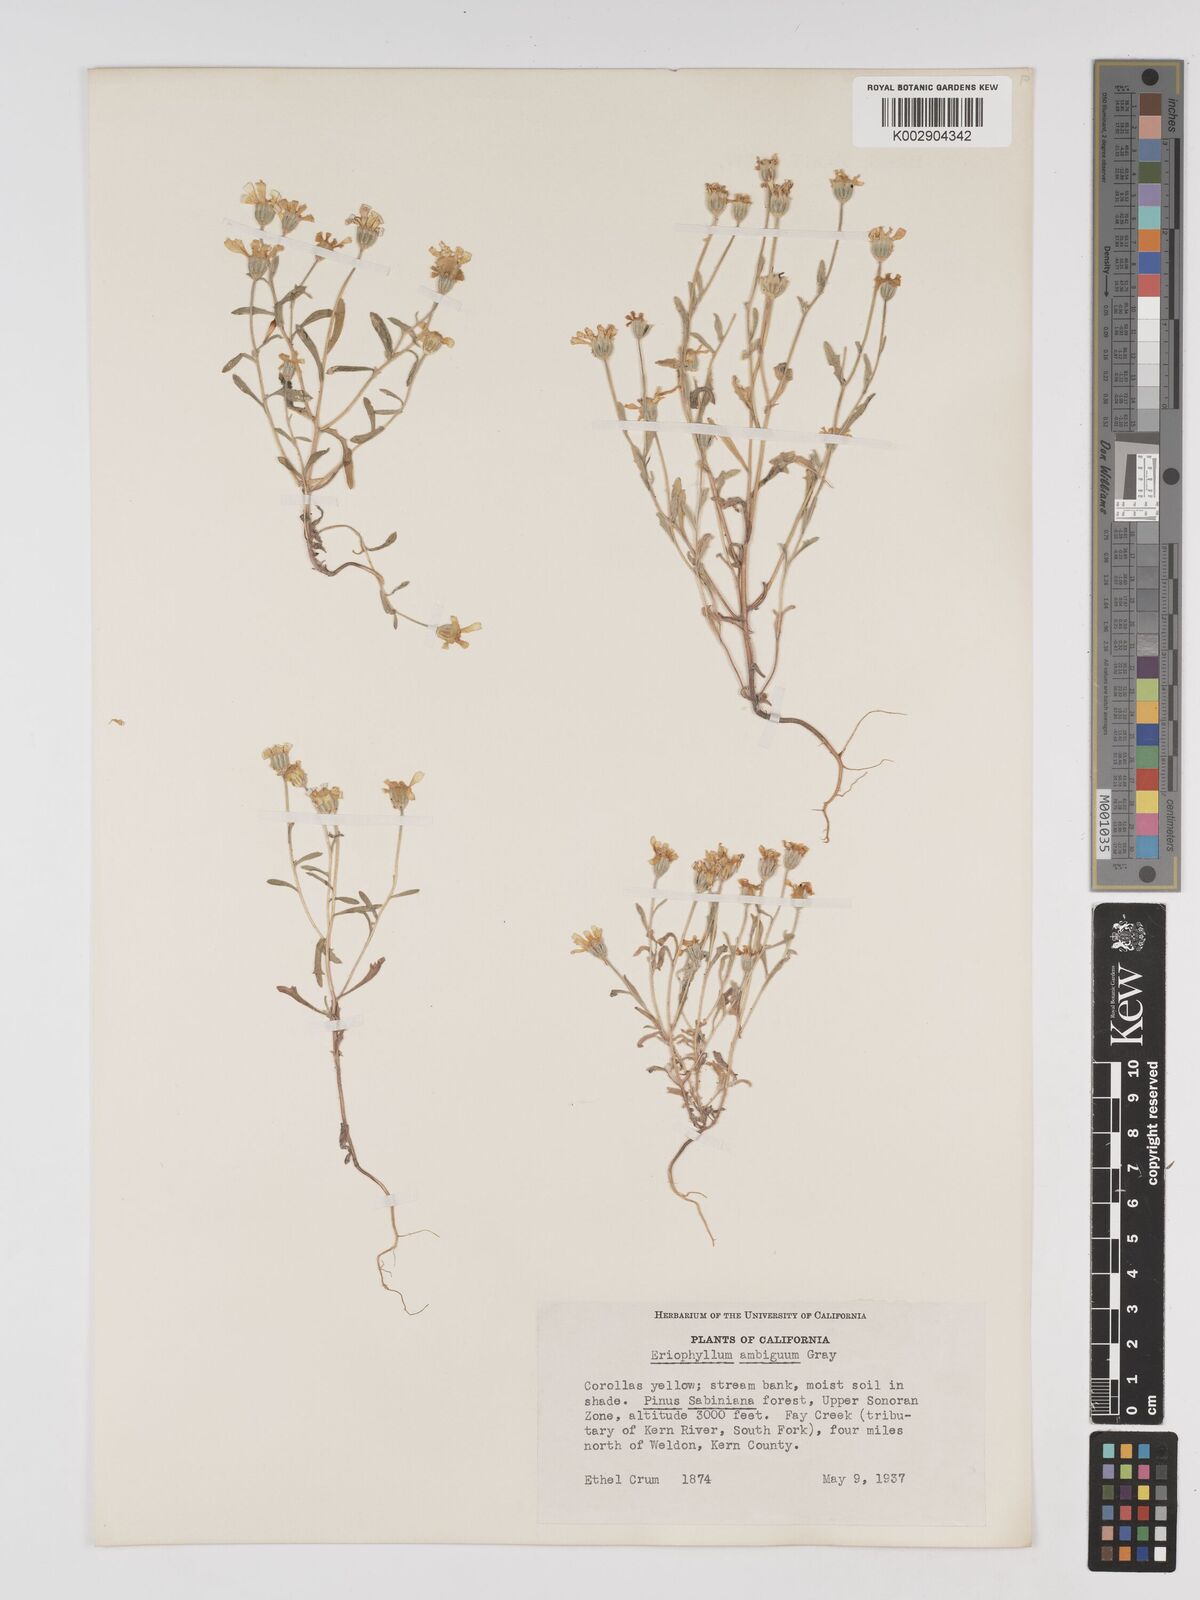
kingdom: Plantae
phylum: Tracheophyta
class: Magnoliopsida
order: Asterales
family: Asteraceae
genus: Eriophyllum
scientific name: Eriophyllum ambiguum
